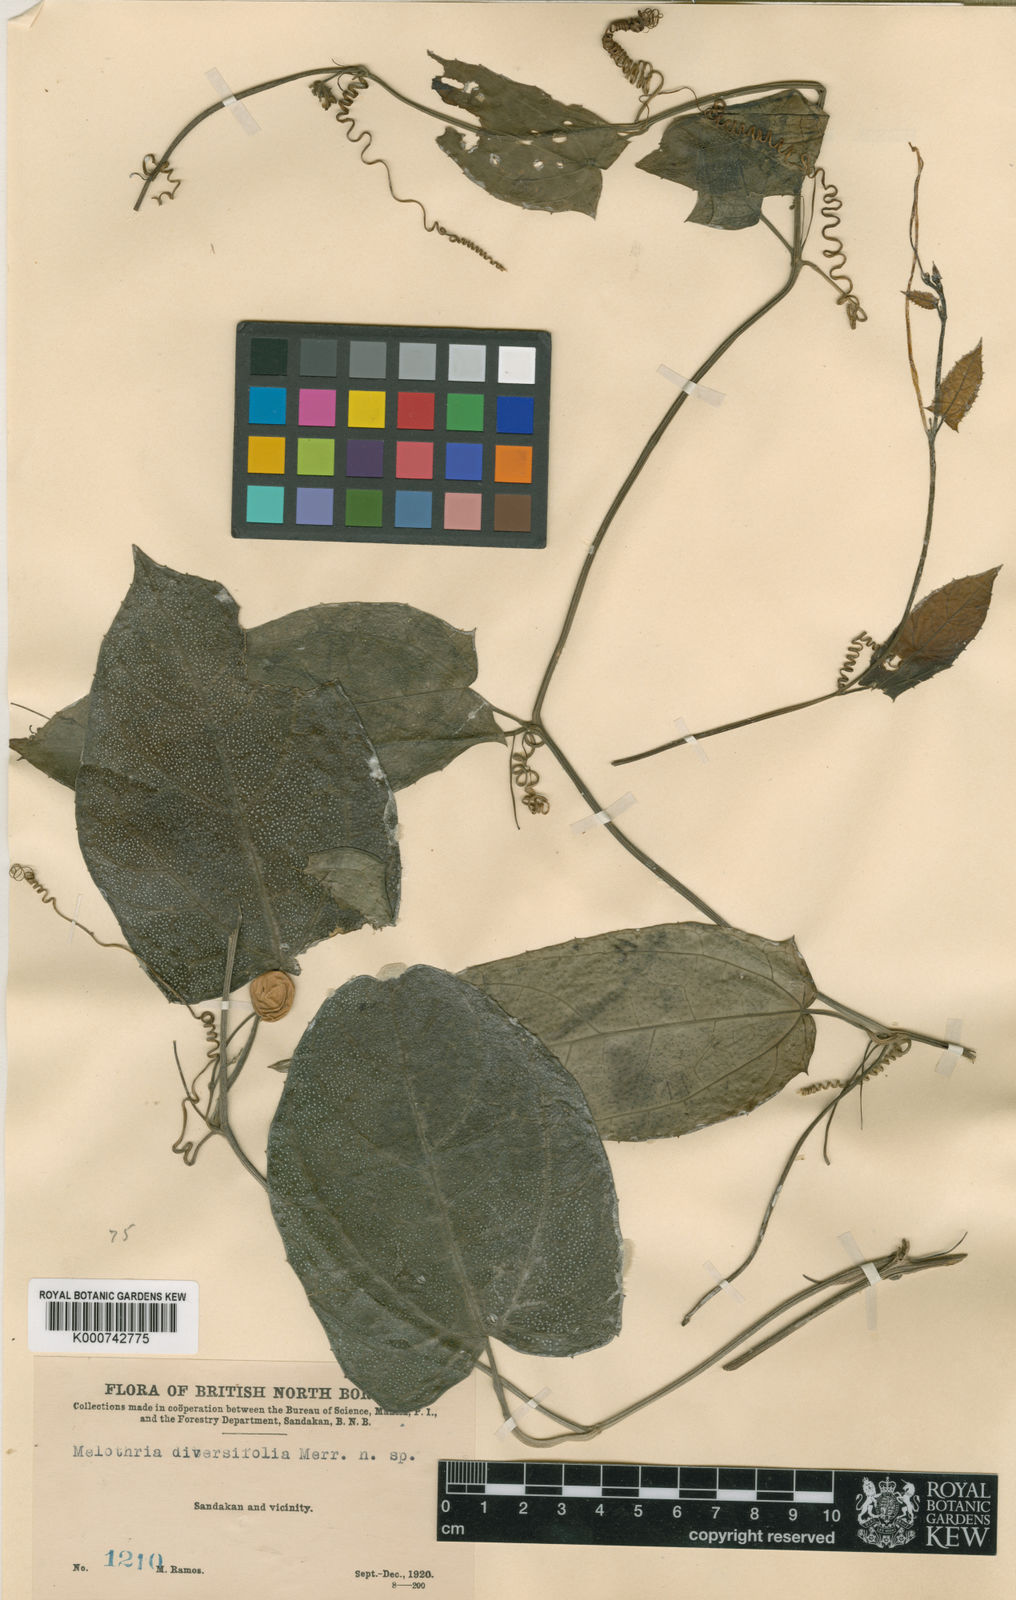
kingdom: Plantae
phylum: Tracheophyta
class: Magnoliopsida
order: Cucurbitales
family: Cucurbitaceae
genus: Zehneria
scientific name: Zehneria
